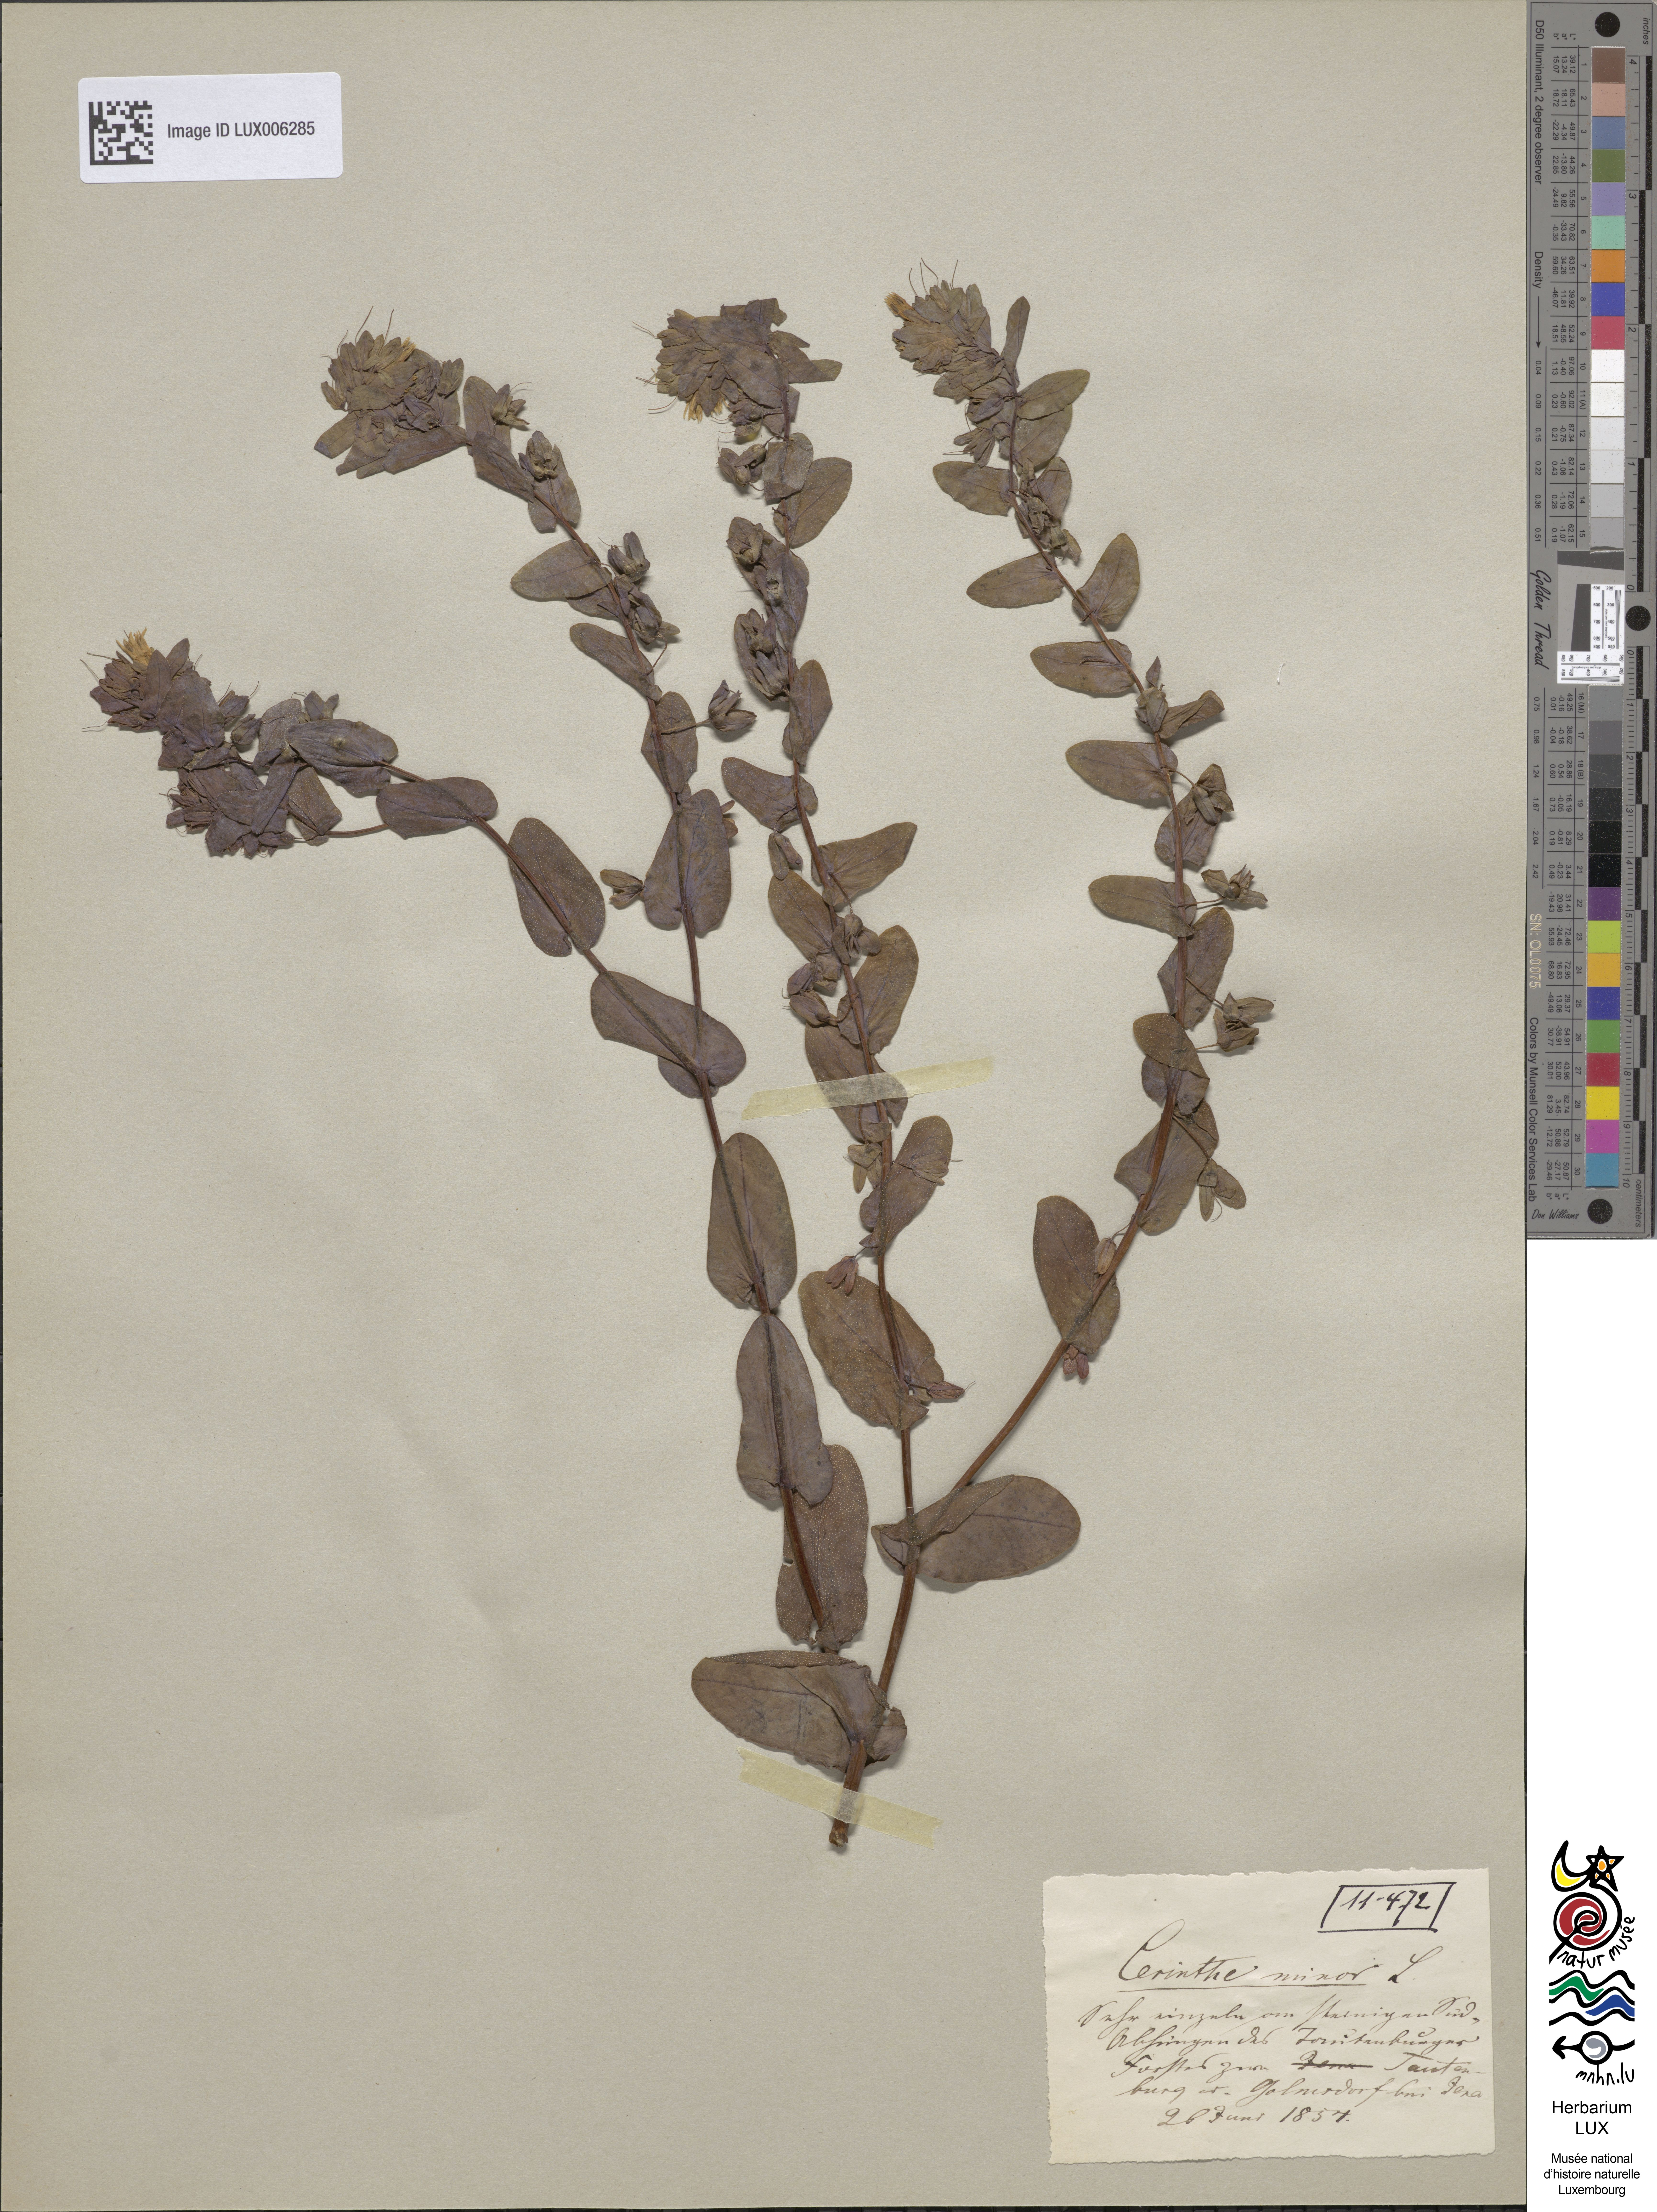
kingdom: Plantae
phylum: Tracheophyta
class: Magnoliopsida
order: Boraginales
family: Boraginaceae
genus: Cerinthe
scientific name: Cerinthe minor
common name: Lesser honeywort
